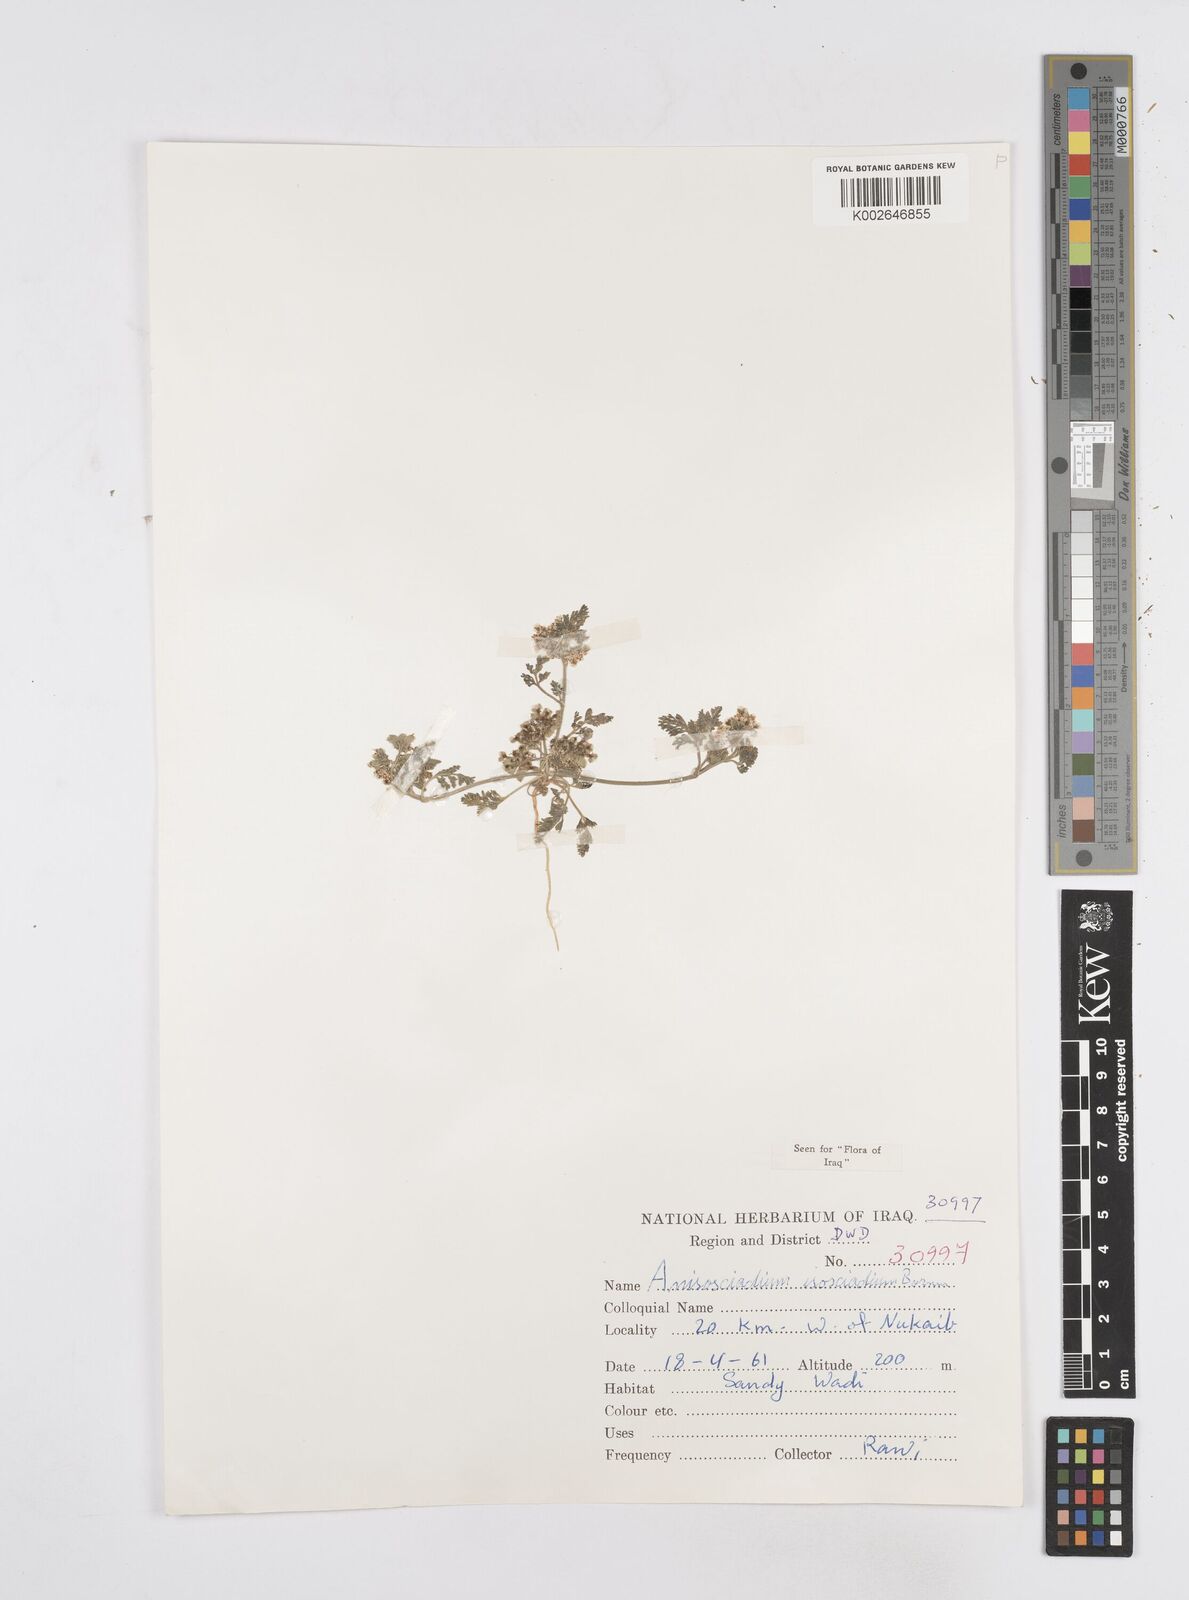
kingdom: Plantae
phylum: Tracheophyta
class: Magnoliopsida
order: Apiales
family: Apiaceae
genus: Anisosciadium
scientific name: Anisosciadium isosciadium
